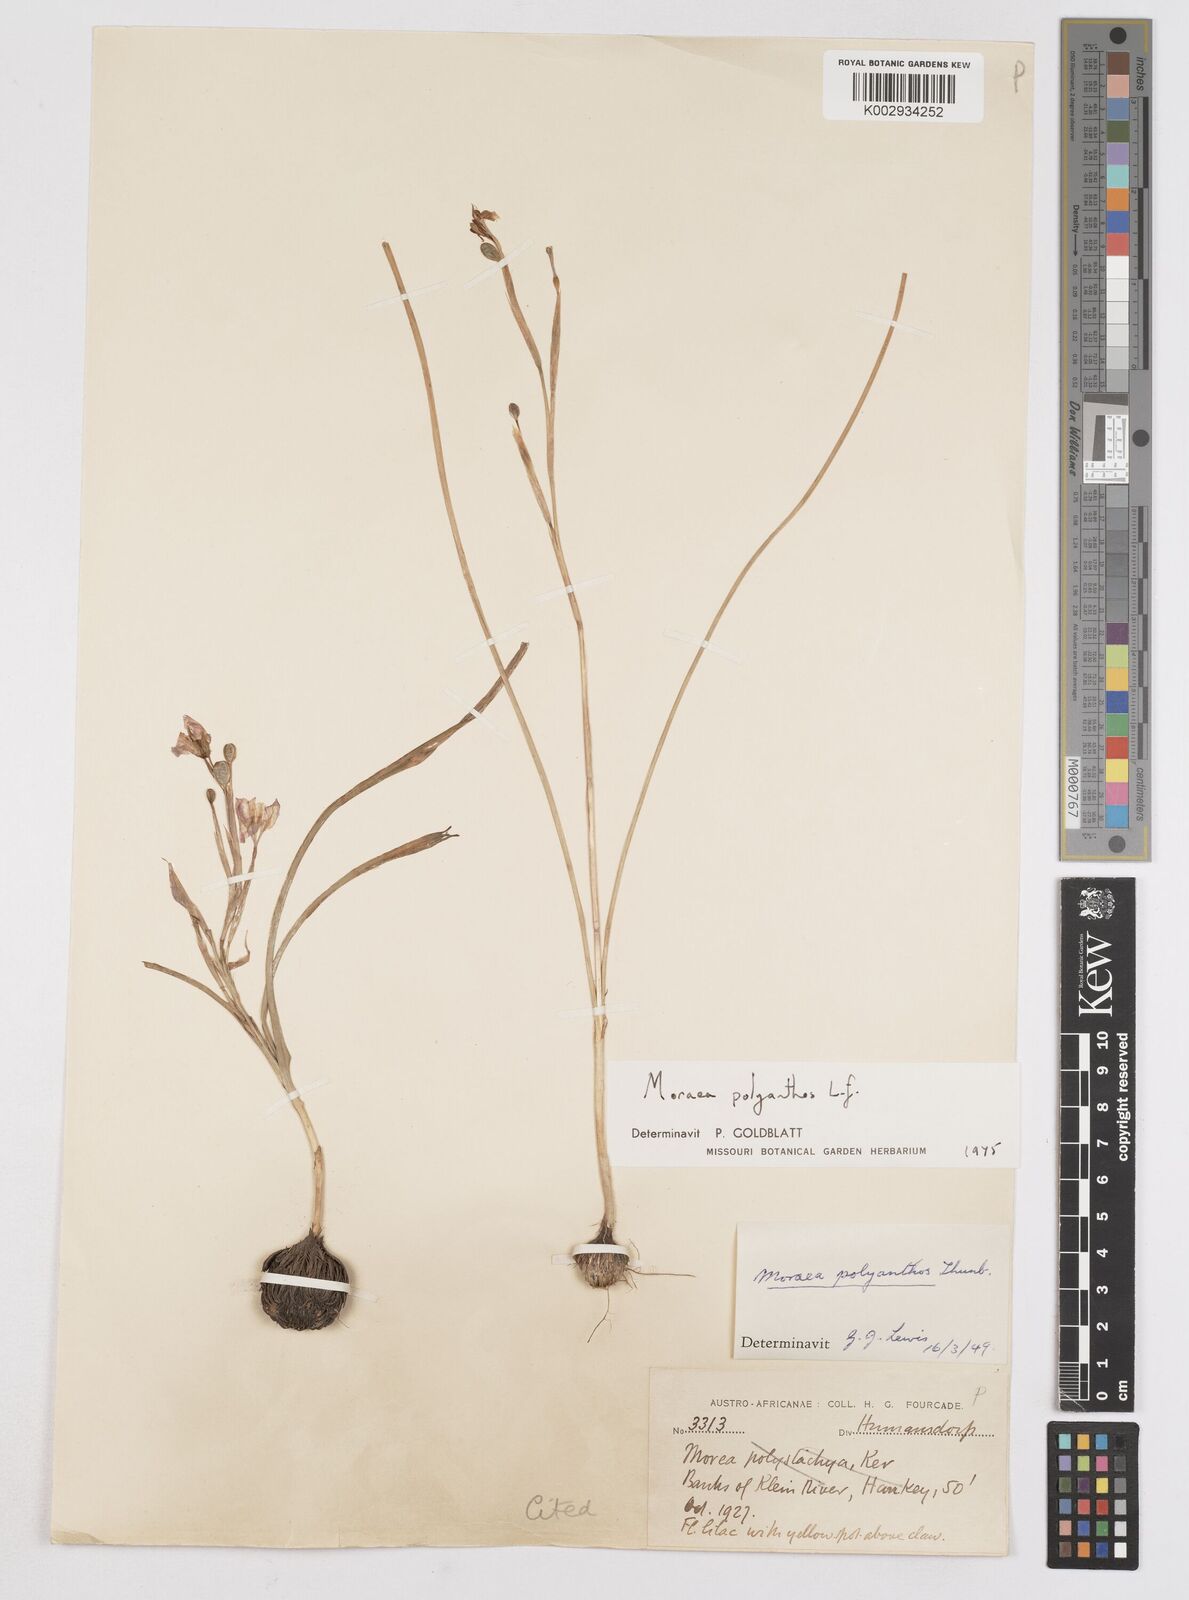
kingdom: Plantae
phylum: Tracheophyta
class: Liliopsida
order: Asparagales
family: Iridaceae
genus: Moraea
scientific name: Moraea bipartita
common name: Blue tulp
